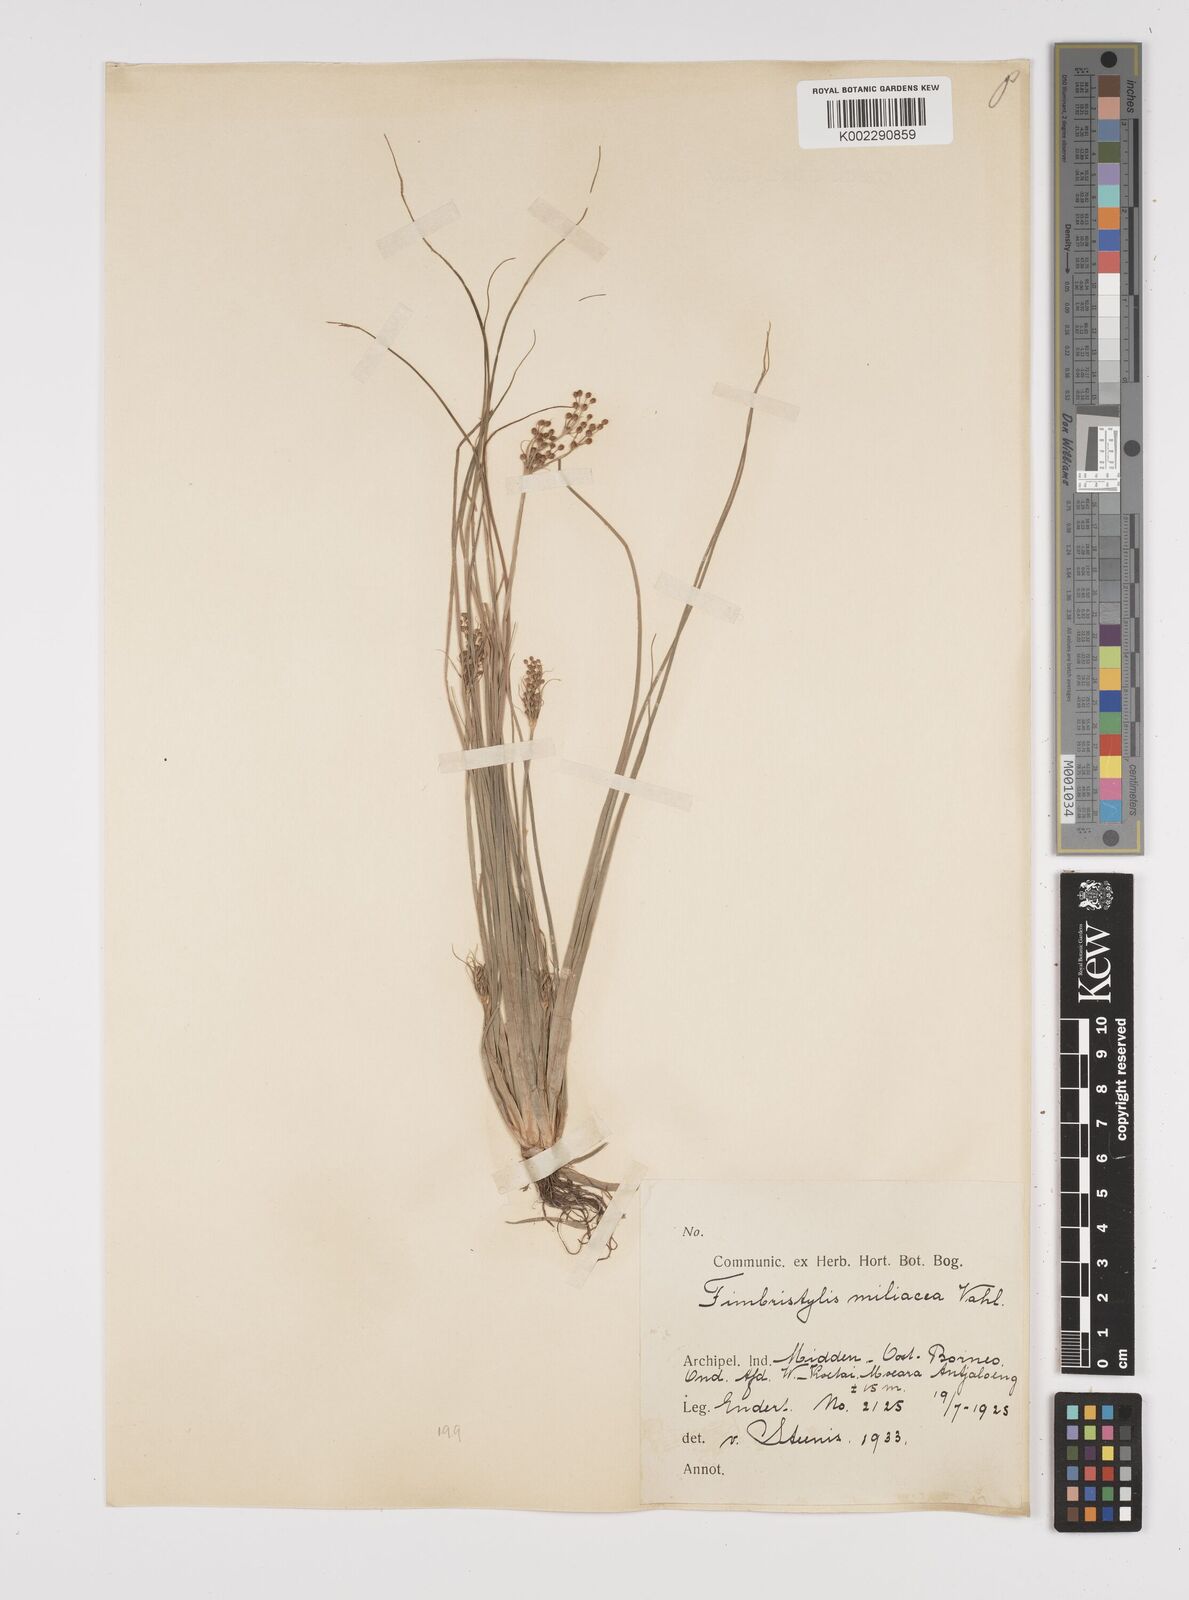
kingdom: Plantae
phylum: Tracheophyta
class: Liliopsida
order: Poales
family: Cyperaceae
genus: Fimbristylis
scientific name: Fimbristylis littoralis
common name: Fimbry
